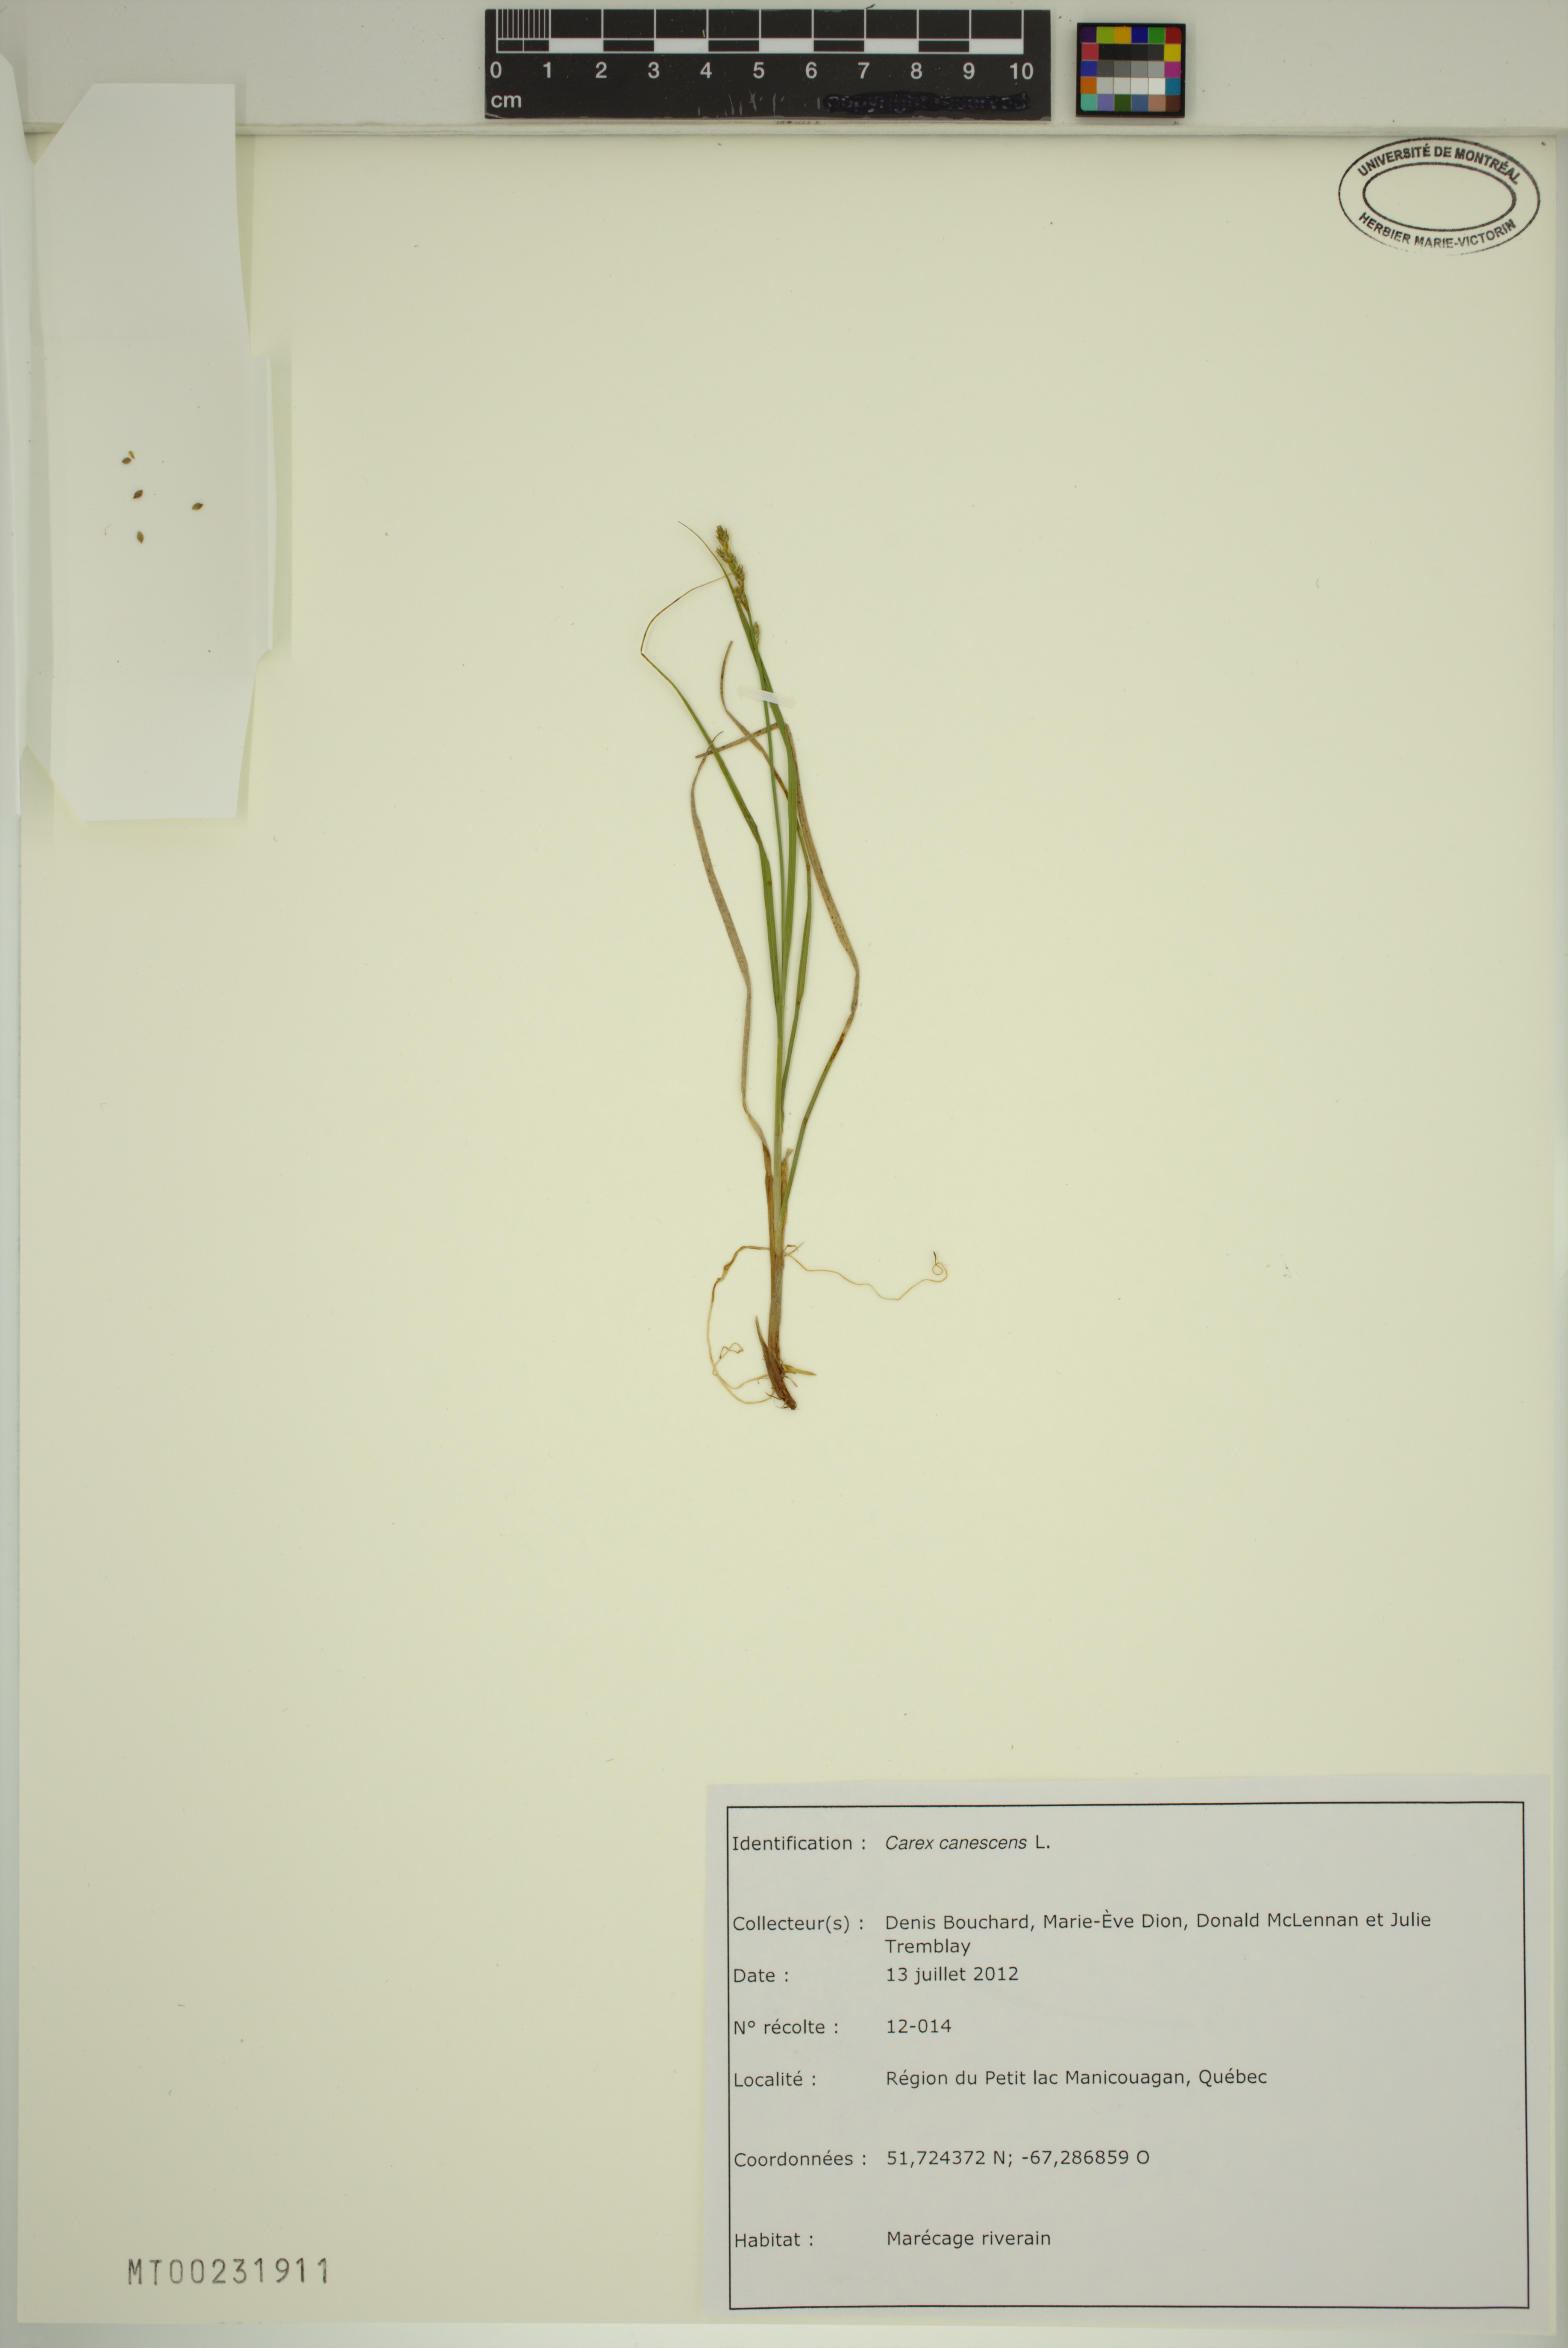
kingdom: Plantae
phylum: Tracheophyta
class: Liliopsida
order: Poales
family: Cyperaceae
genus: Carex
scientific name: Carex canescens
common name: White sedge
